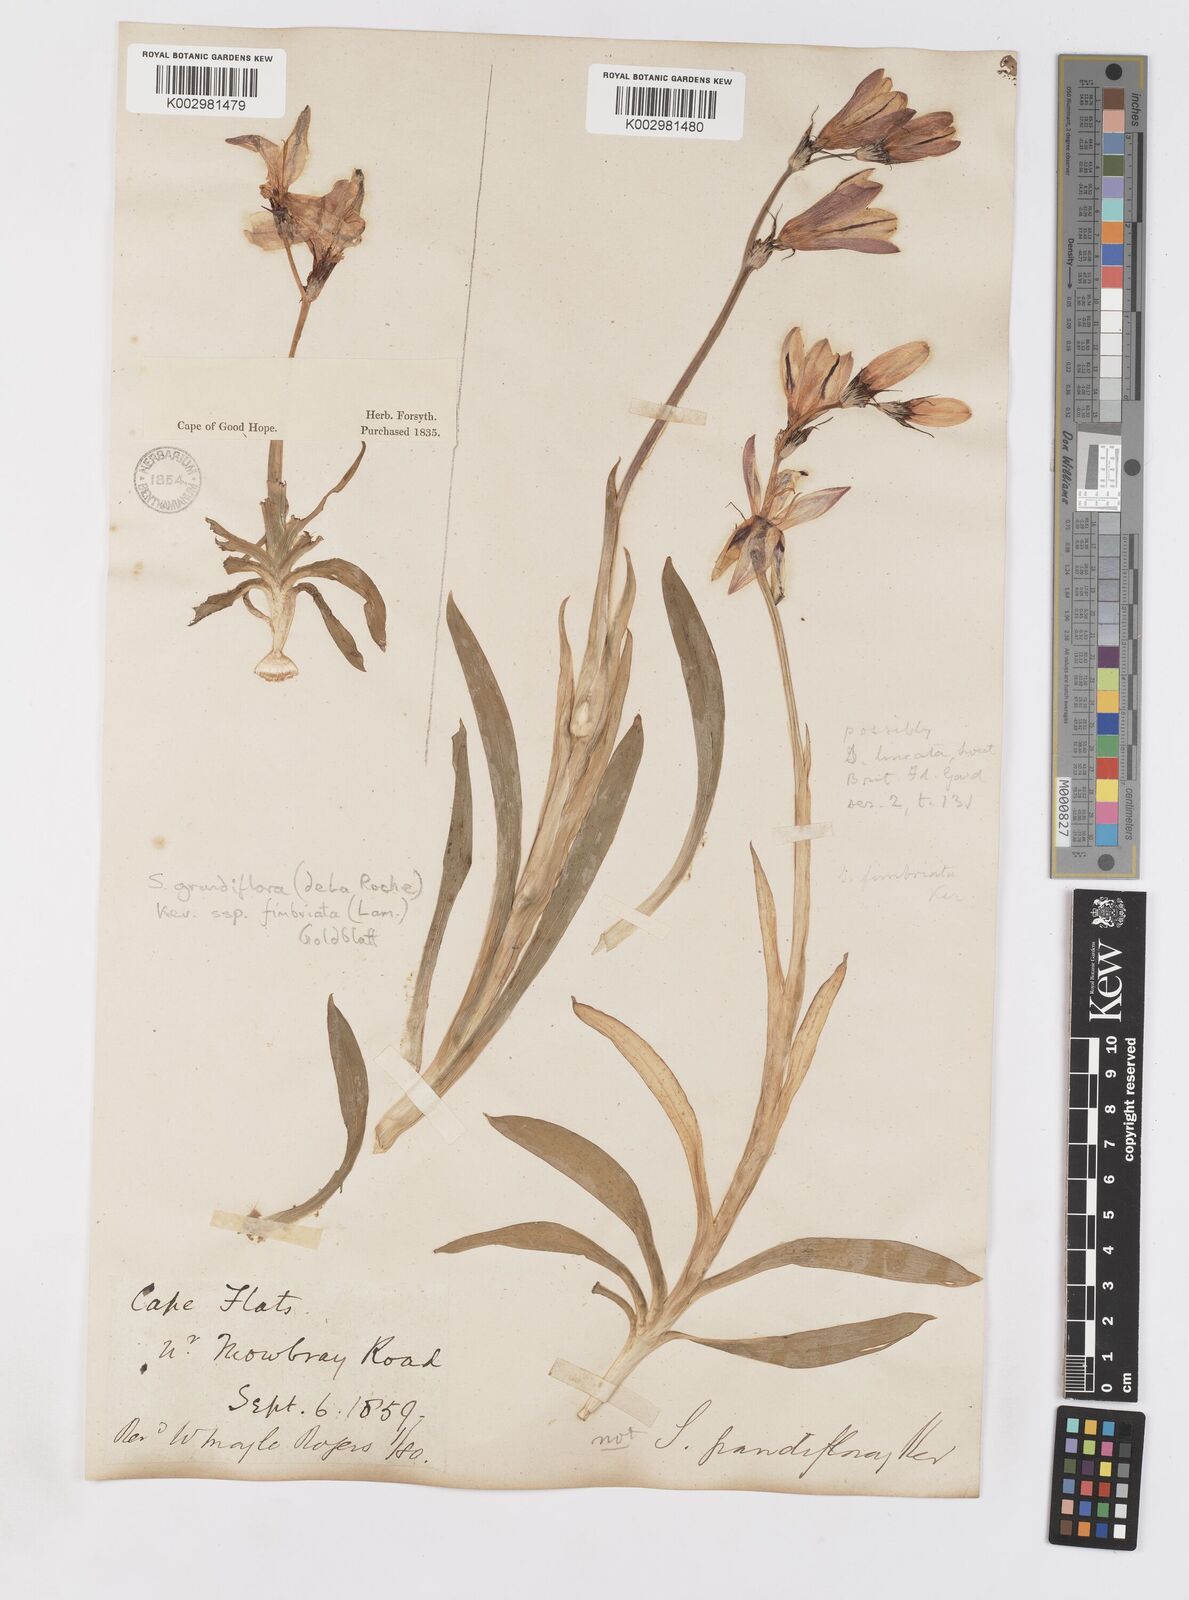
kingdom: Plantae
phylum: Tracheophyta
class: Liliopsida
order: Asparagales
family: Iridaceae
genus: Sparaxis
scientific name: Sparaxis grandiflora
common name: Plain harlequin-flower
